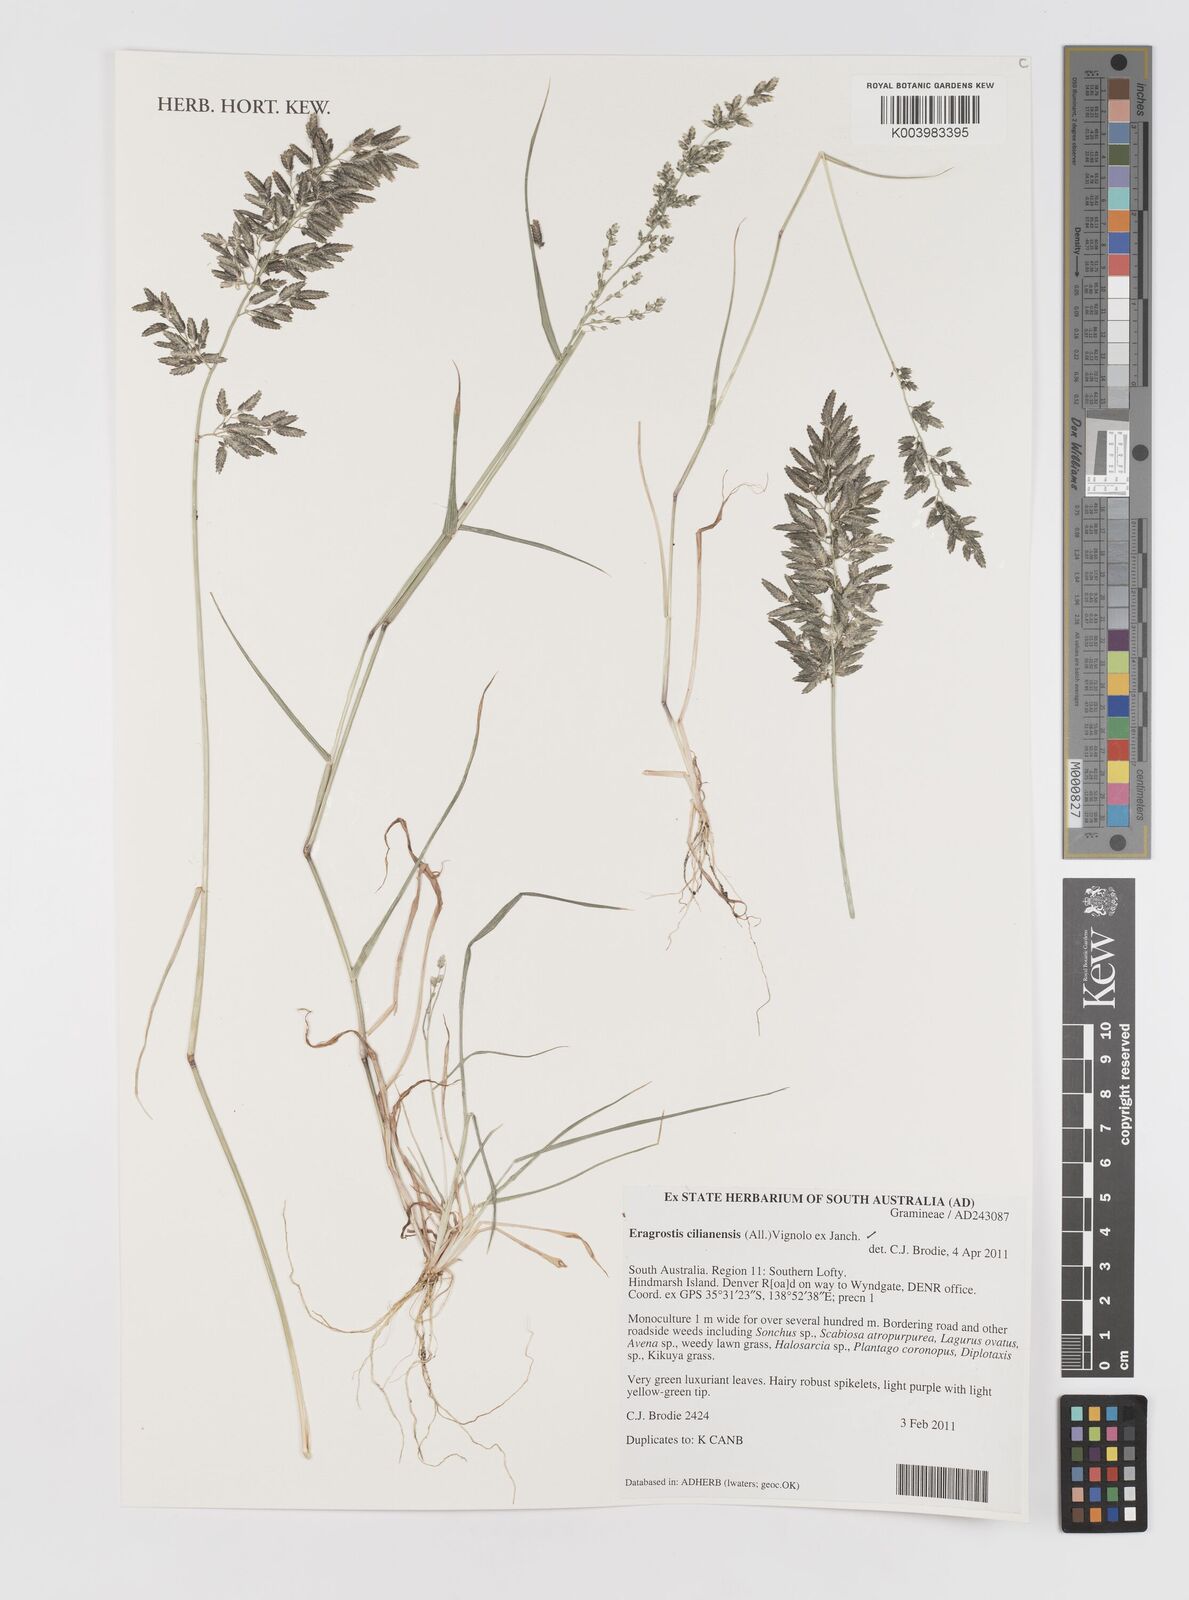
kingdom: Plantae
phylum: Tracheophyta
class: Liliopsida
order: Poales
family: Poaceae
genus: Eragrostis
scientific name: Eragrostis cilianensis
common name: Stinkgrass
